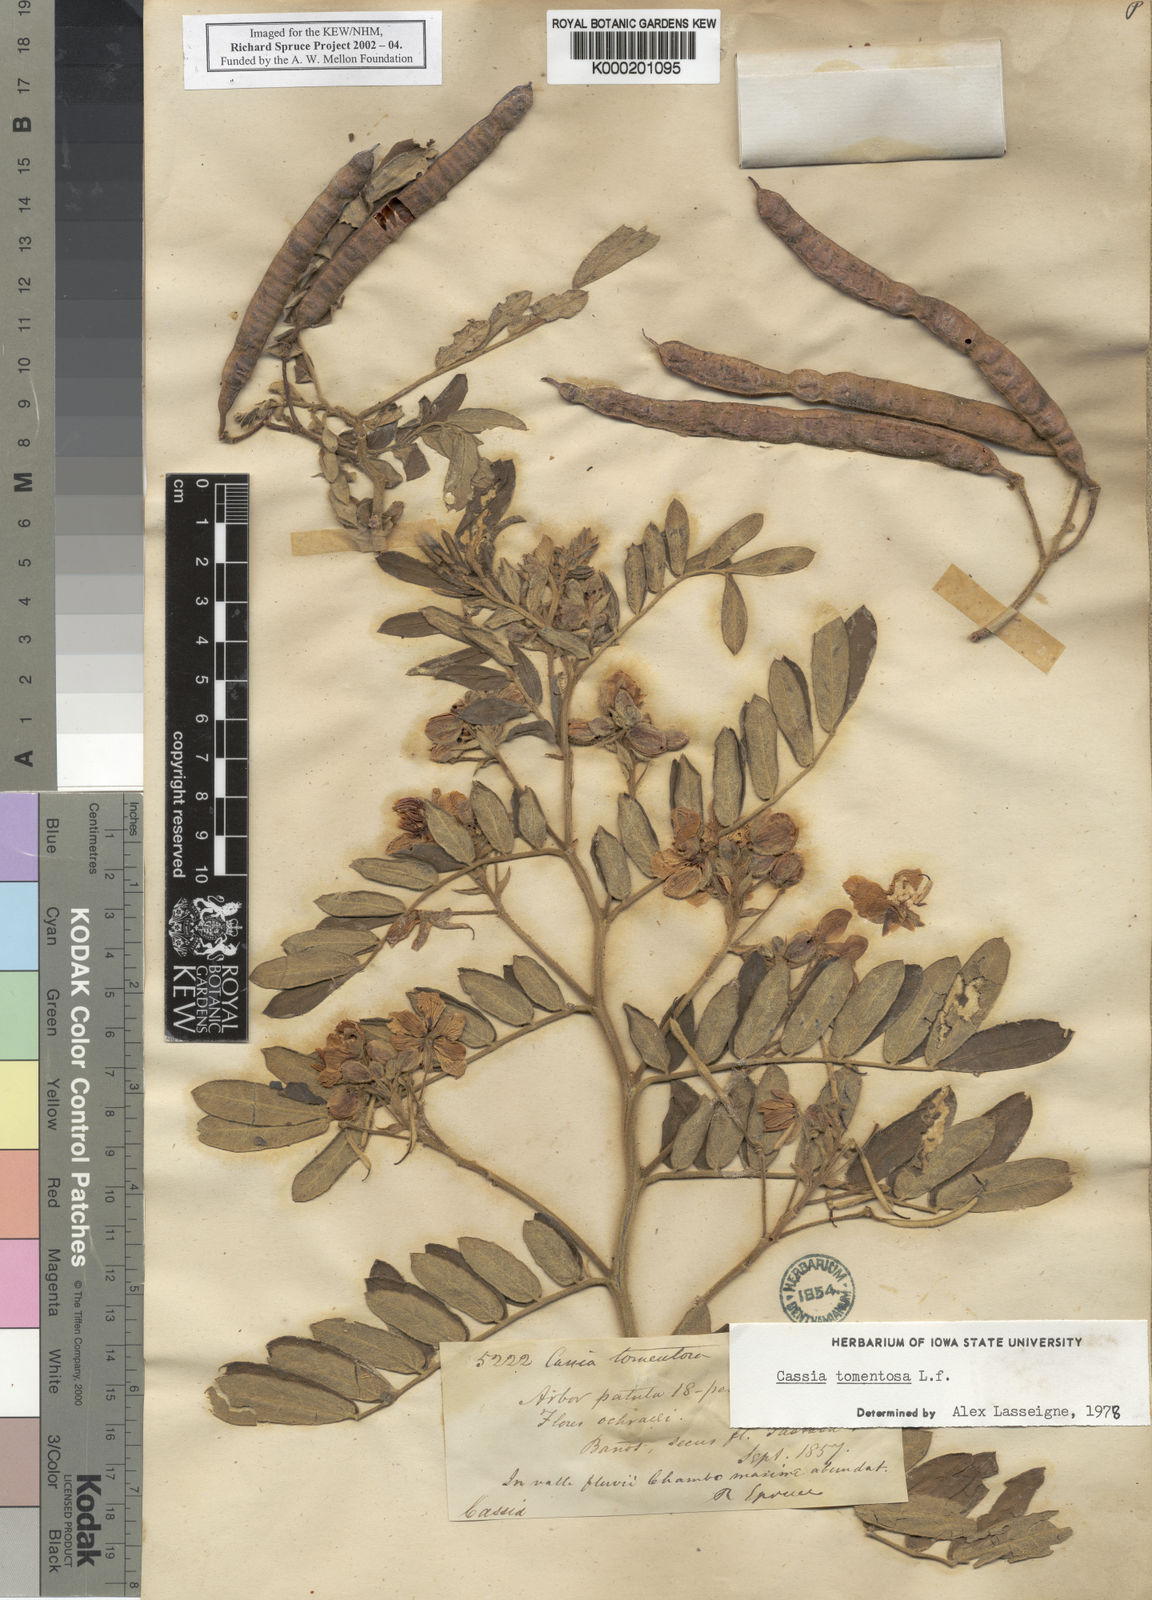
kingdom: Plantae
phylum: Tracheophyta
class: Magnoliopsida
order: Fabales
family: Fabaceae
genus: Senna
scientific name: Senna multiglandulosa
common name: Glandular senna
